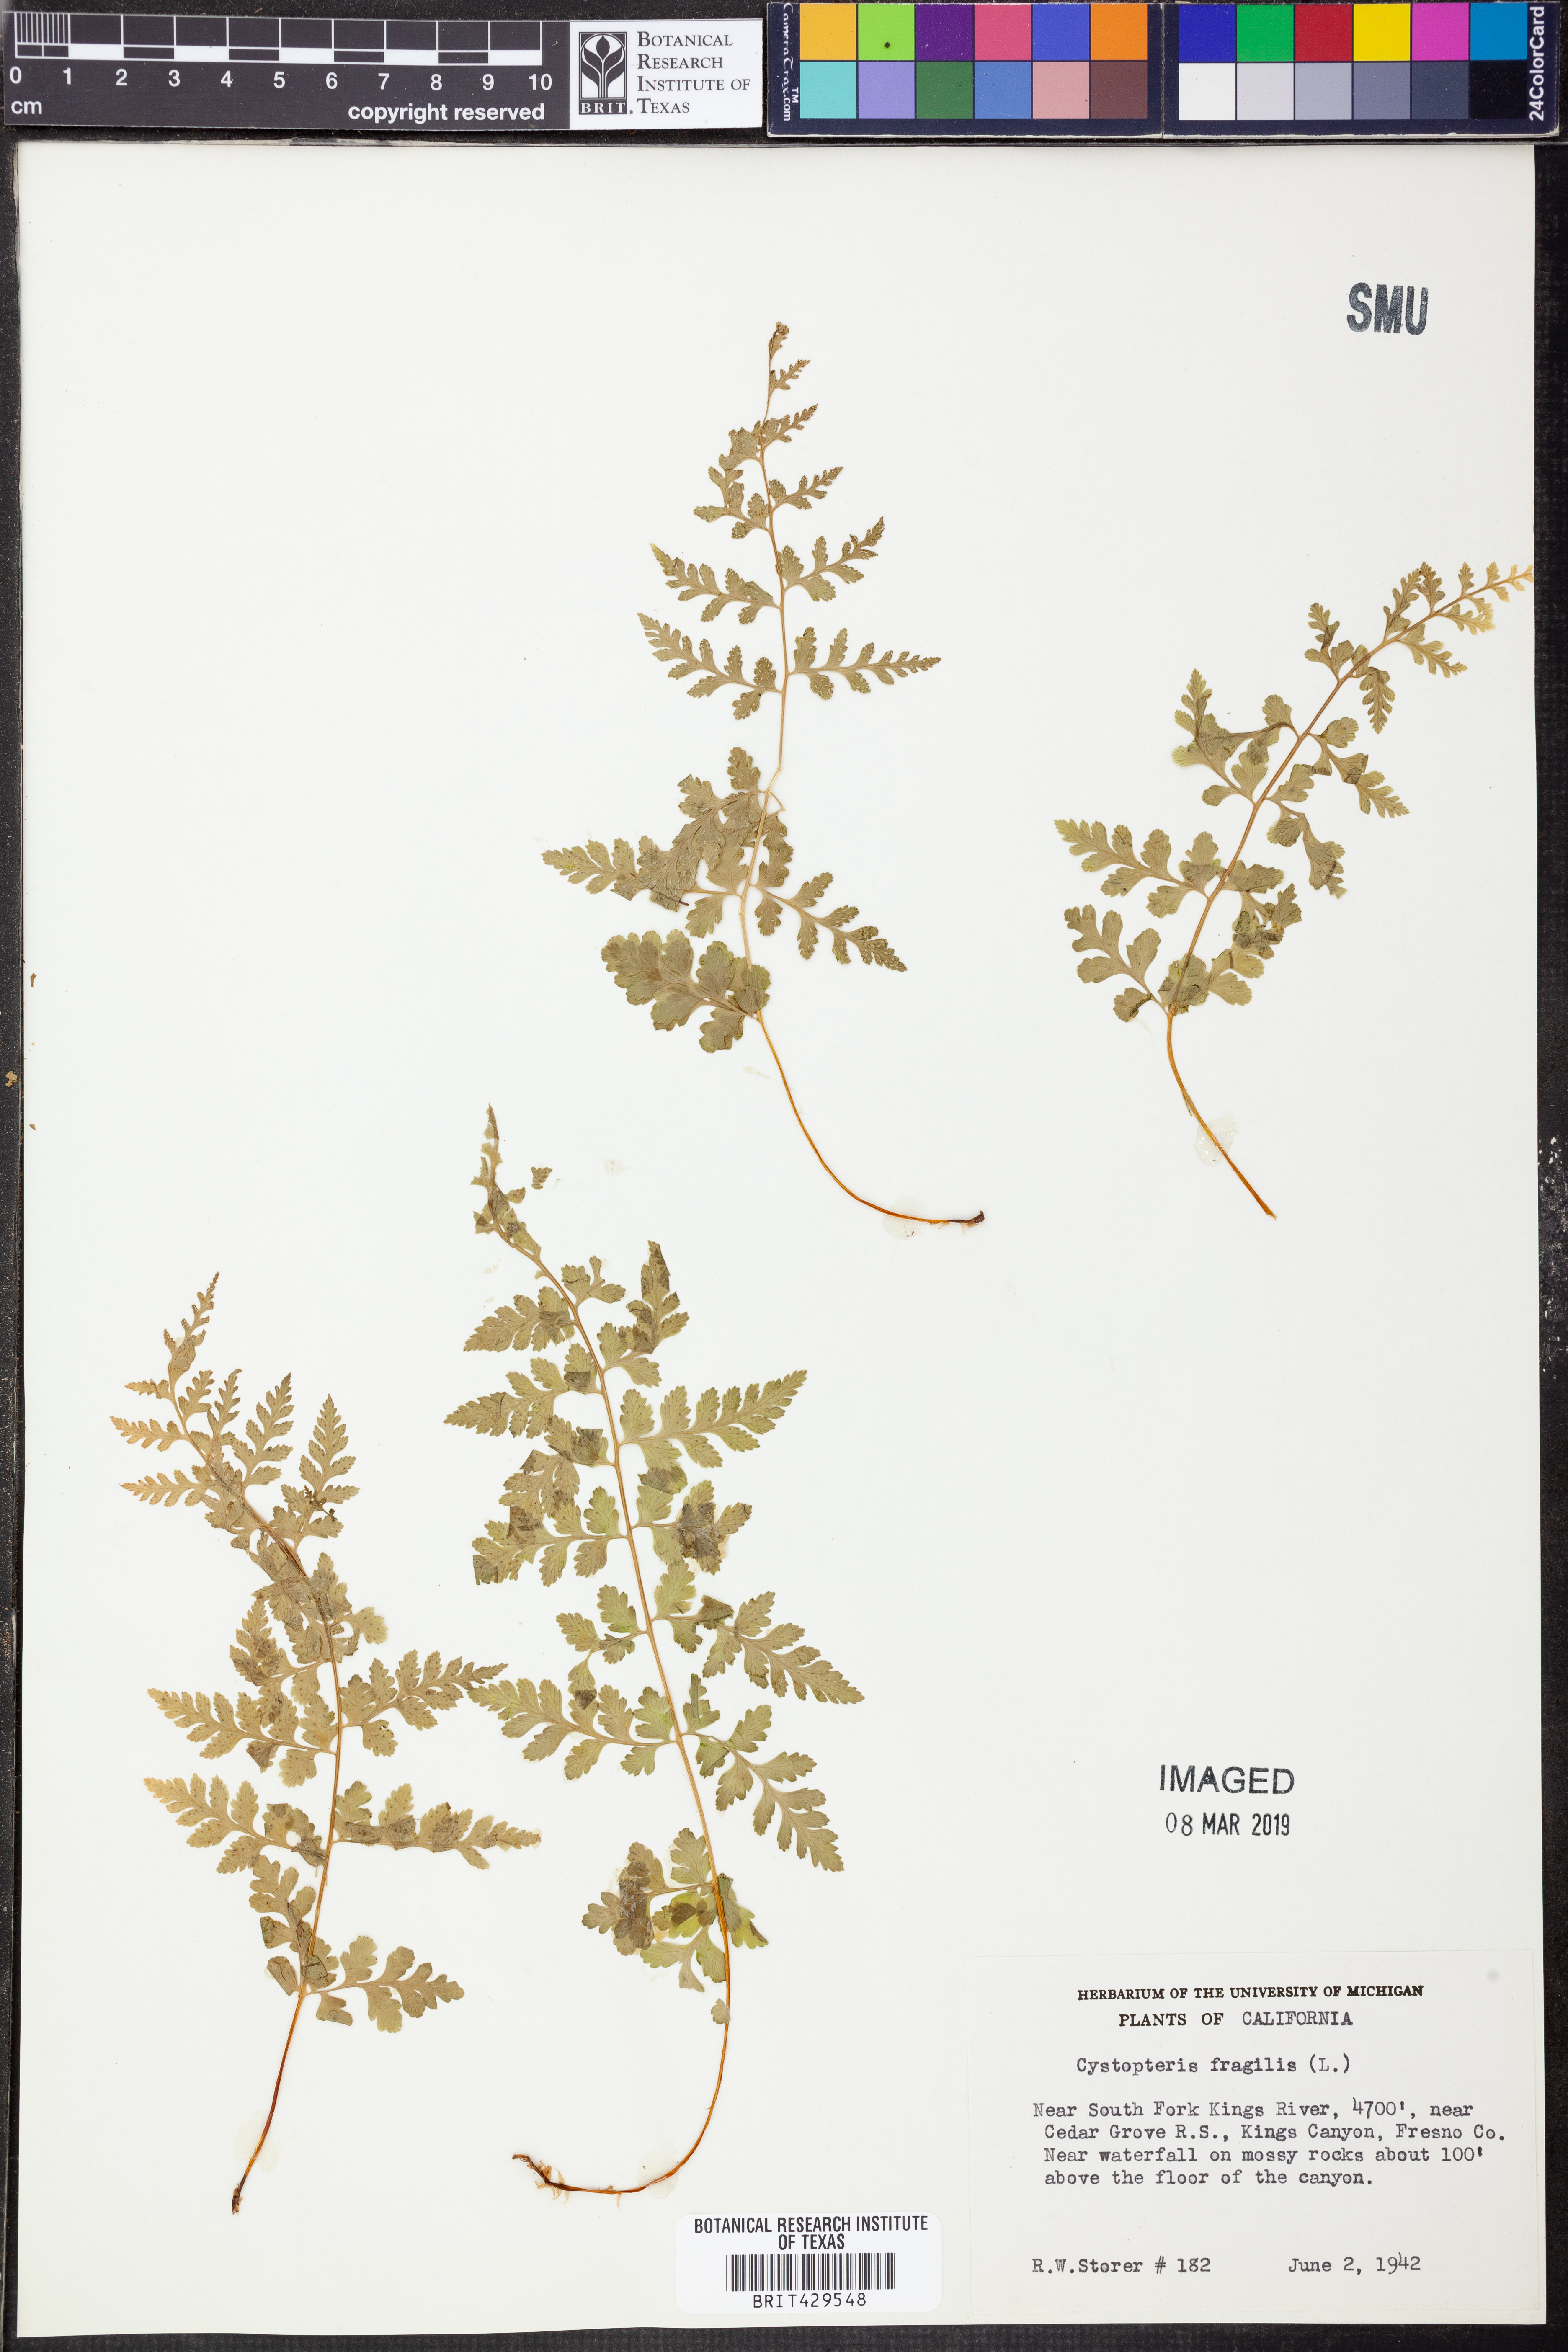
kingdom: Plantae
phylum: Tracheophyta
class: Polypodiopsida
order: Polypodiales
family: Cystopteridaceae
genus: Cystopteris
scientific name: Cystopteris fragilis
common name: Brittle bladder fern
